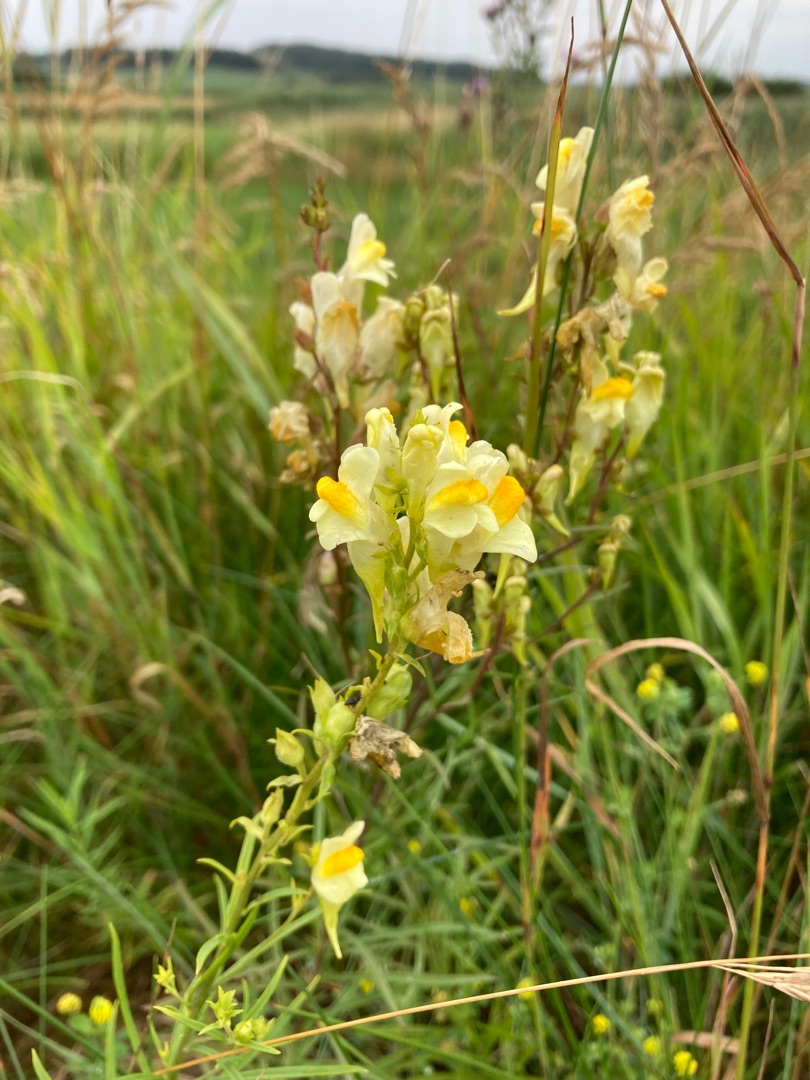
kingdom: Plantae
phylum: Tracheophyta
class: Magnoliopsida
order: Lamiales
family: Plantaginaceae
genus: Linaria
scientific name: Linaria vulgaris
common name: Almindelig torskemund
